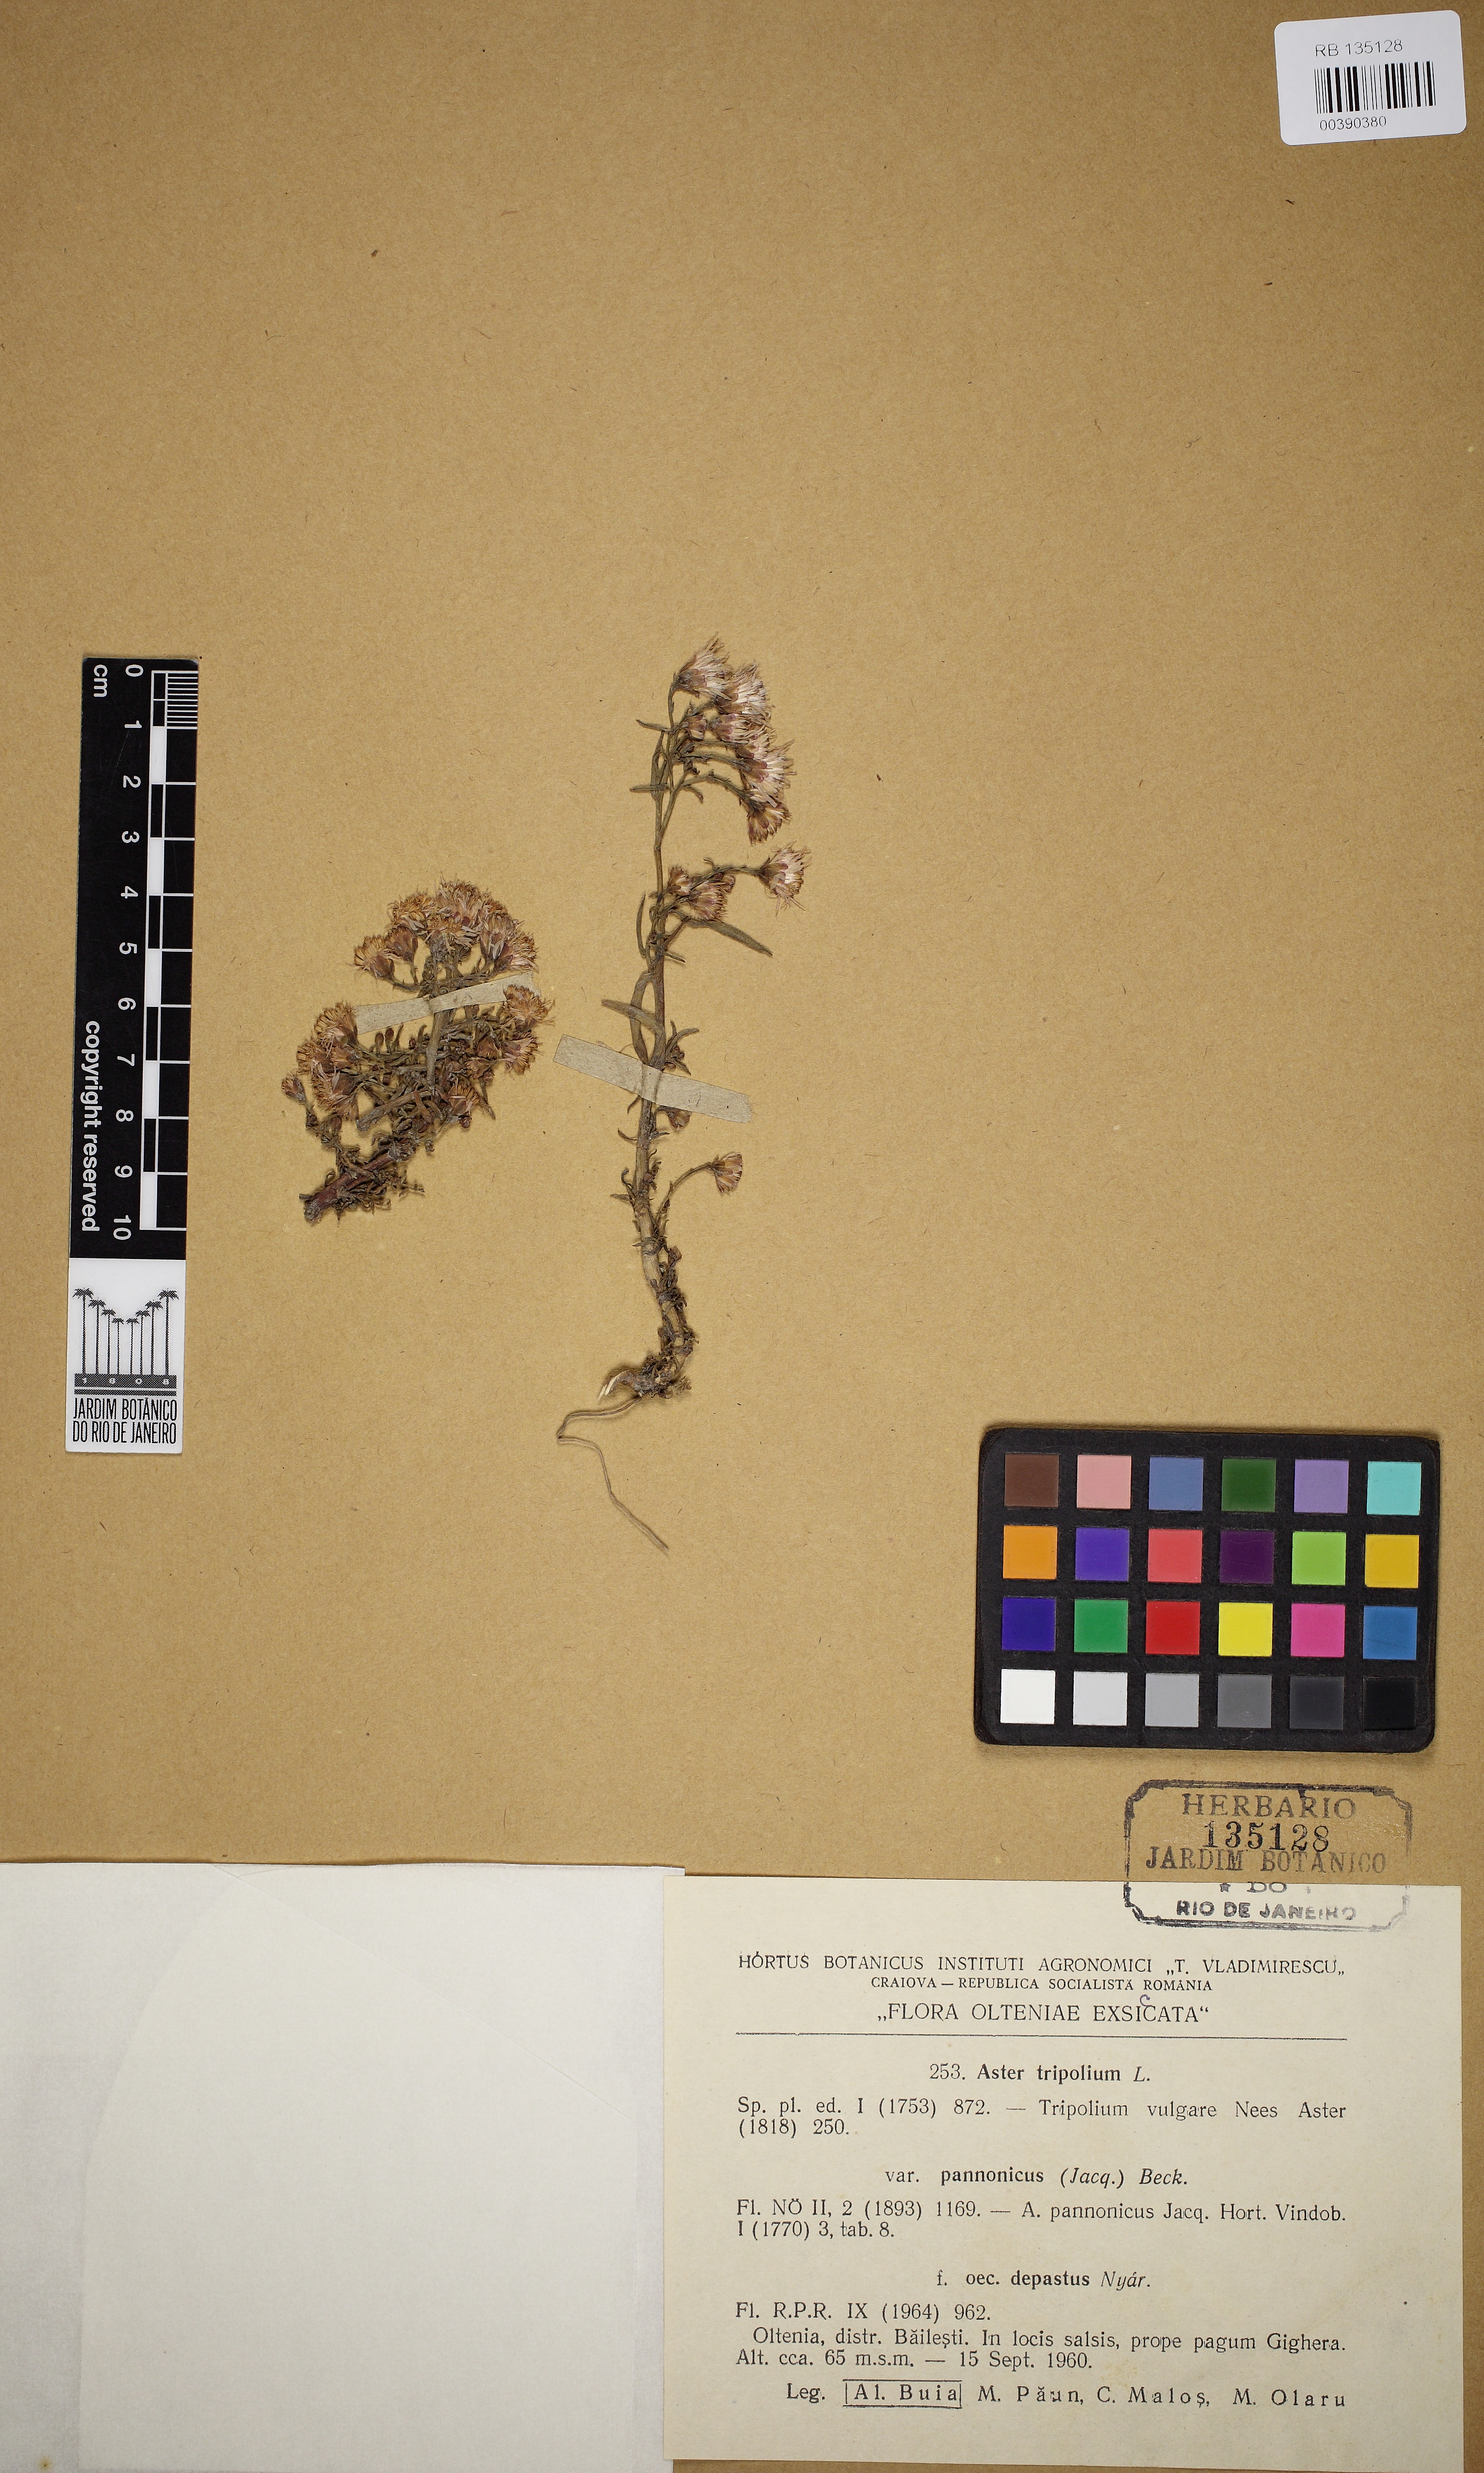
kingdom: Plantae
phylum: Tracheophyta
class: Magnoliopsida
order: Asterales
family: Asteraceae
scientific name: Asteraceae
